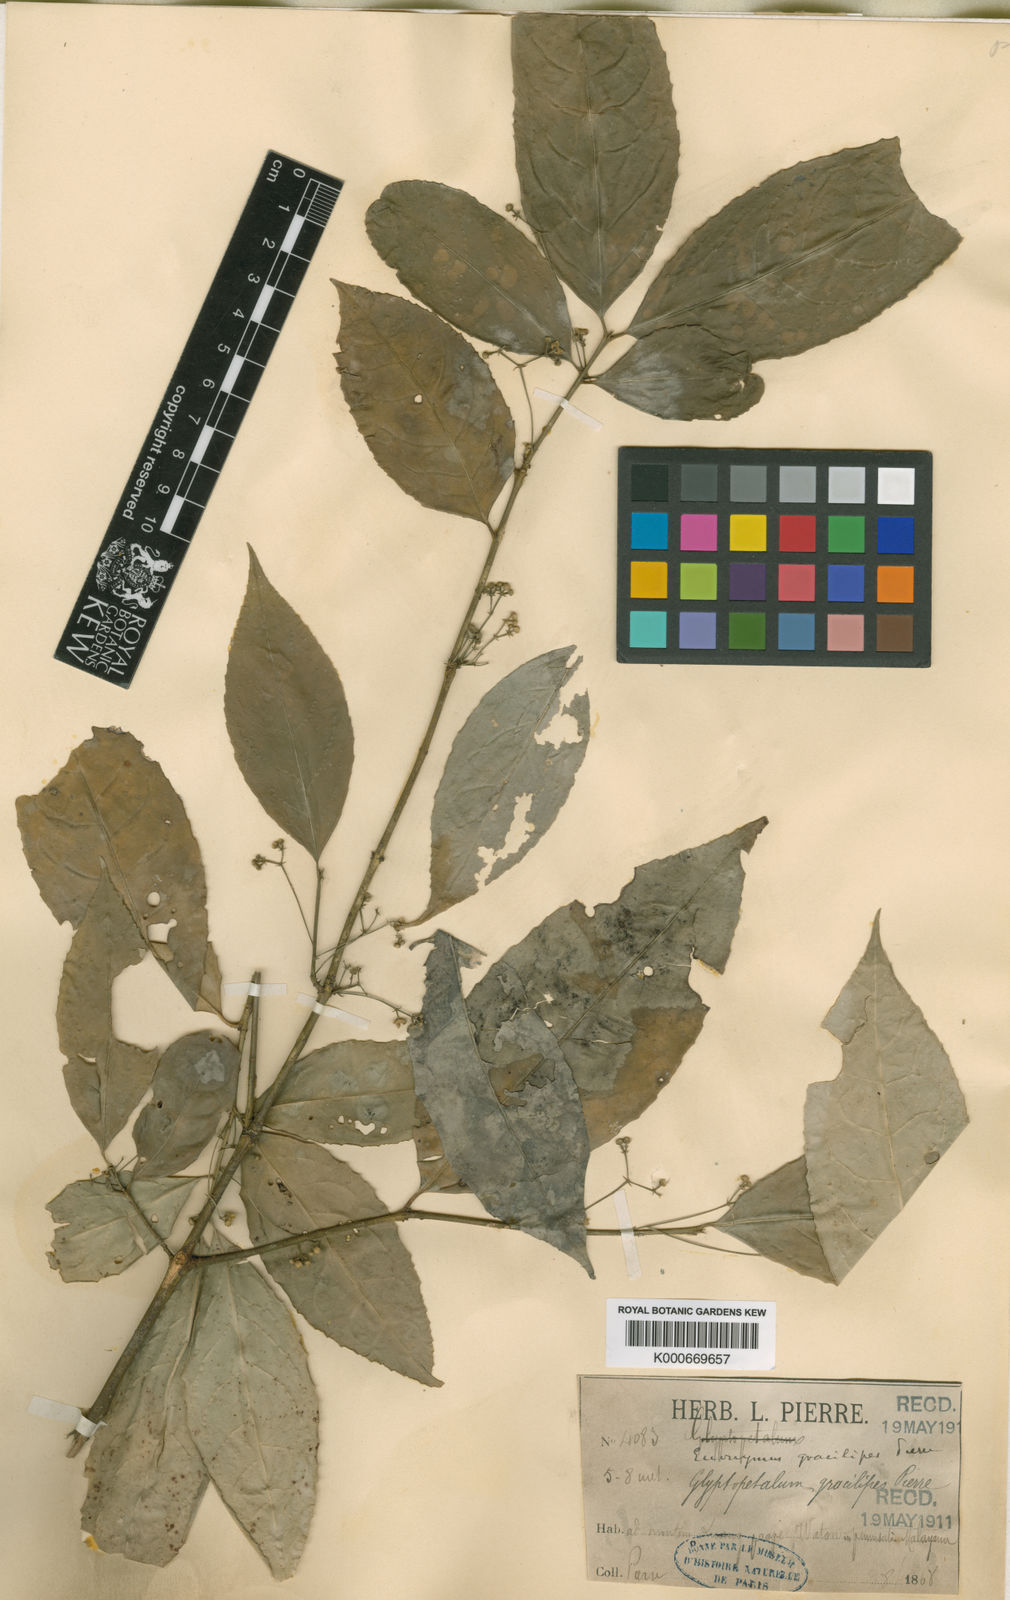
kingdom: Plantae
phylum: Tracheophyta
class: Magnoliopsida
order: Celastrales
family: Celastraceae
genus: Euonymus
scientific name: Euonymus gracilipes
